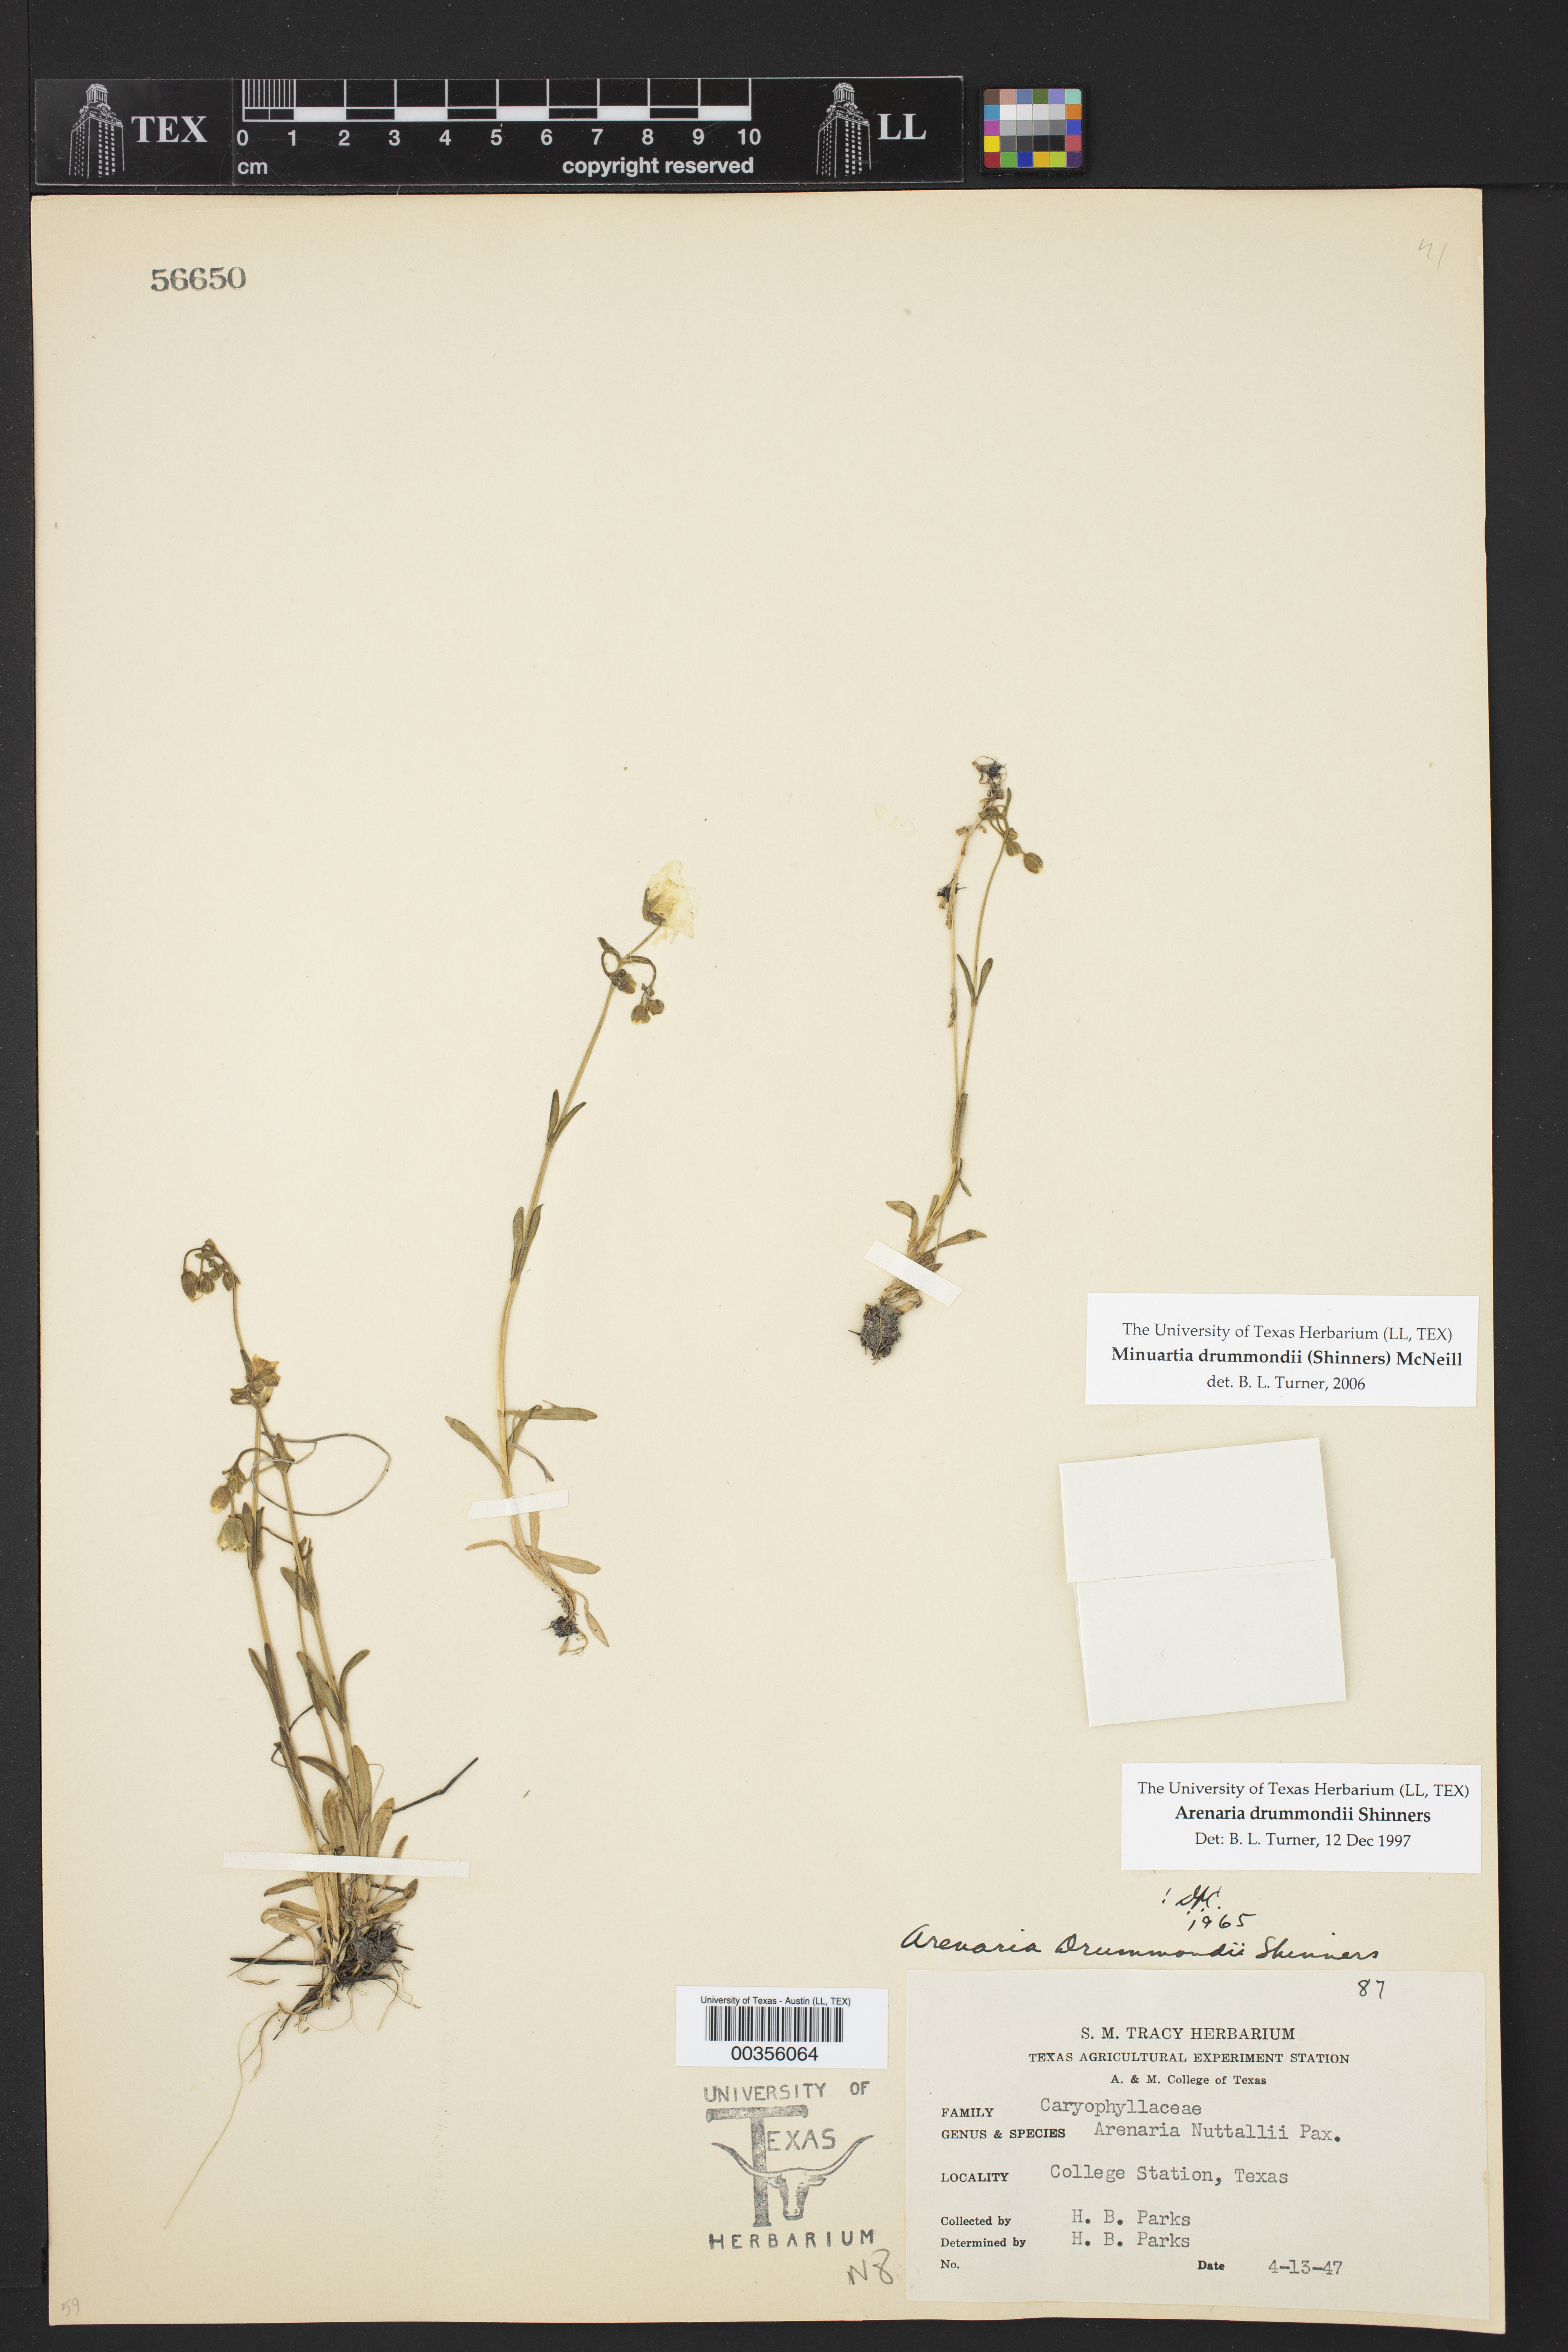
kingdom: Plantae
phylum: Tracheophyta
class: Magnoliopsida
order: Caryophyllales
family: Caryophyllaceae
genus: Geocarpon
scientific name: Geocarpon nuttallii
